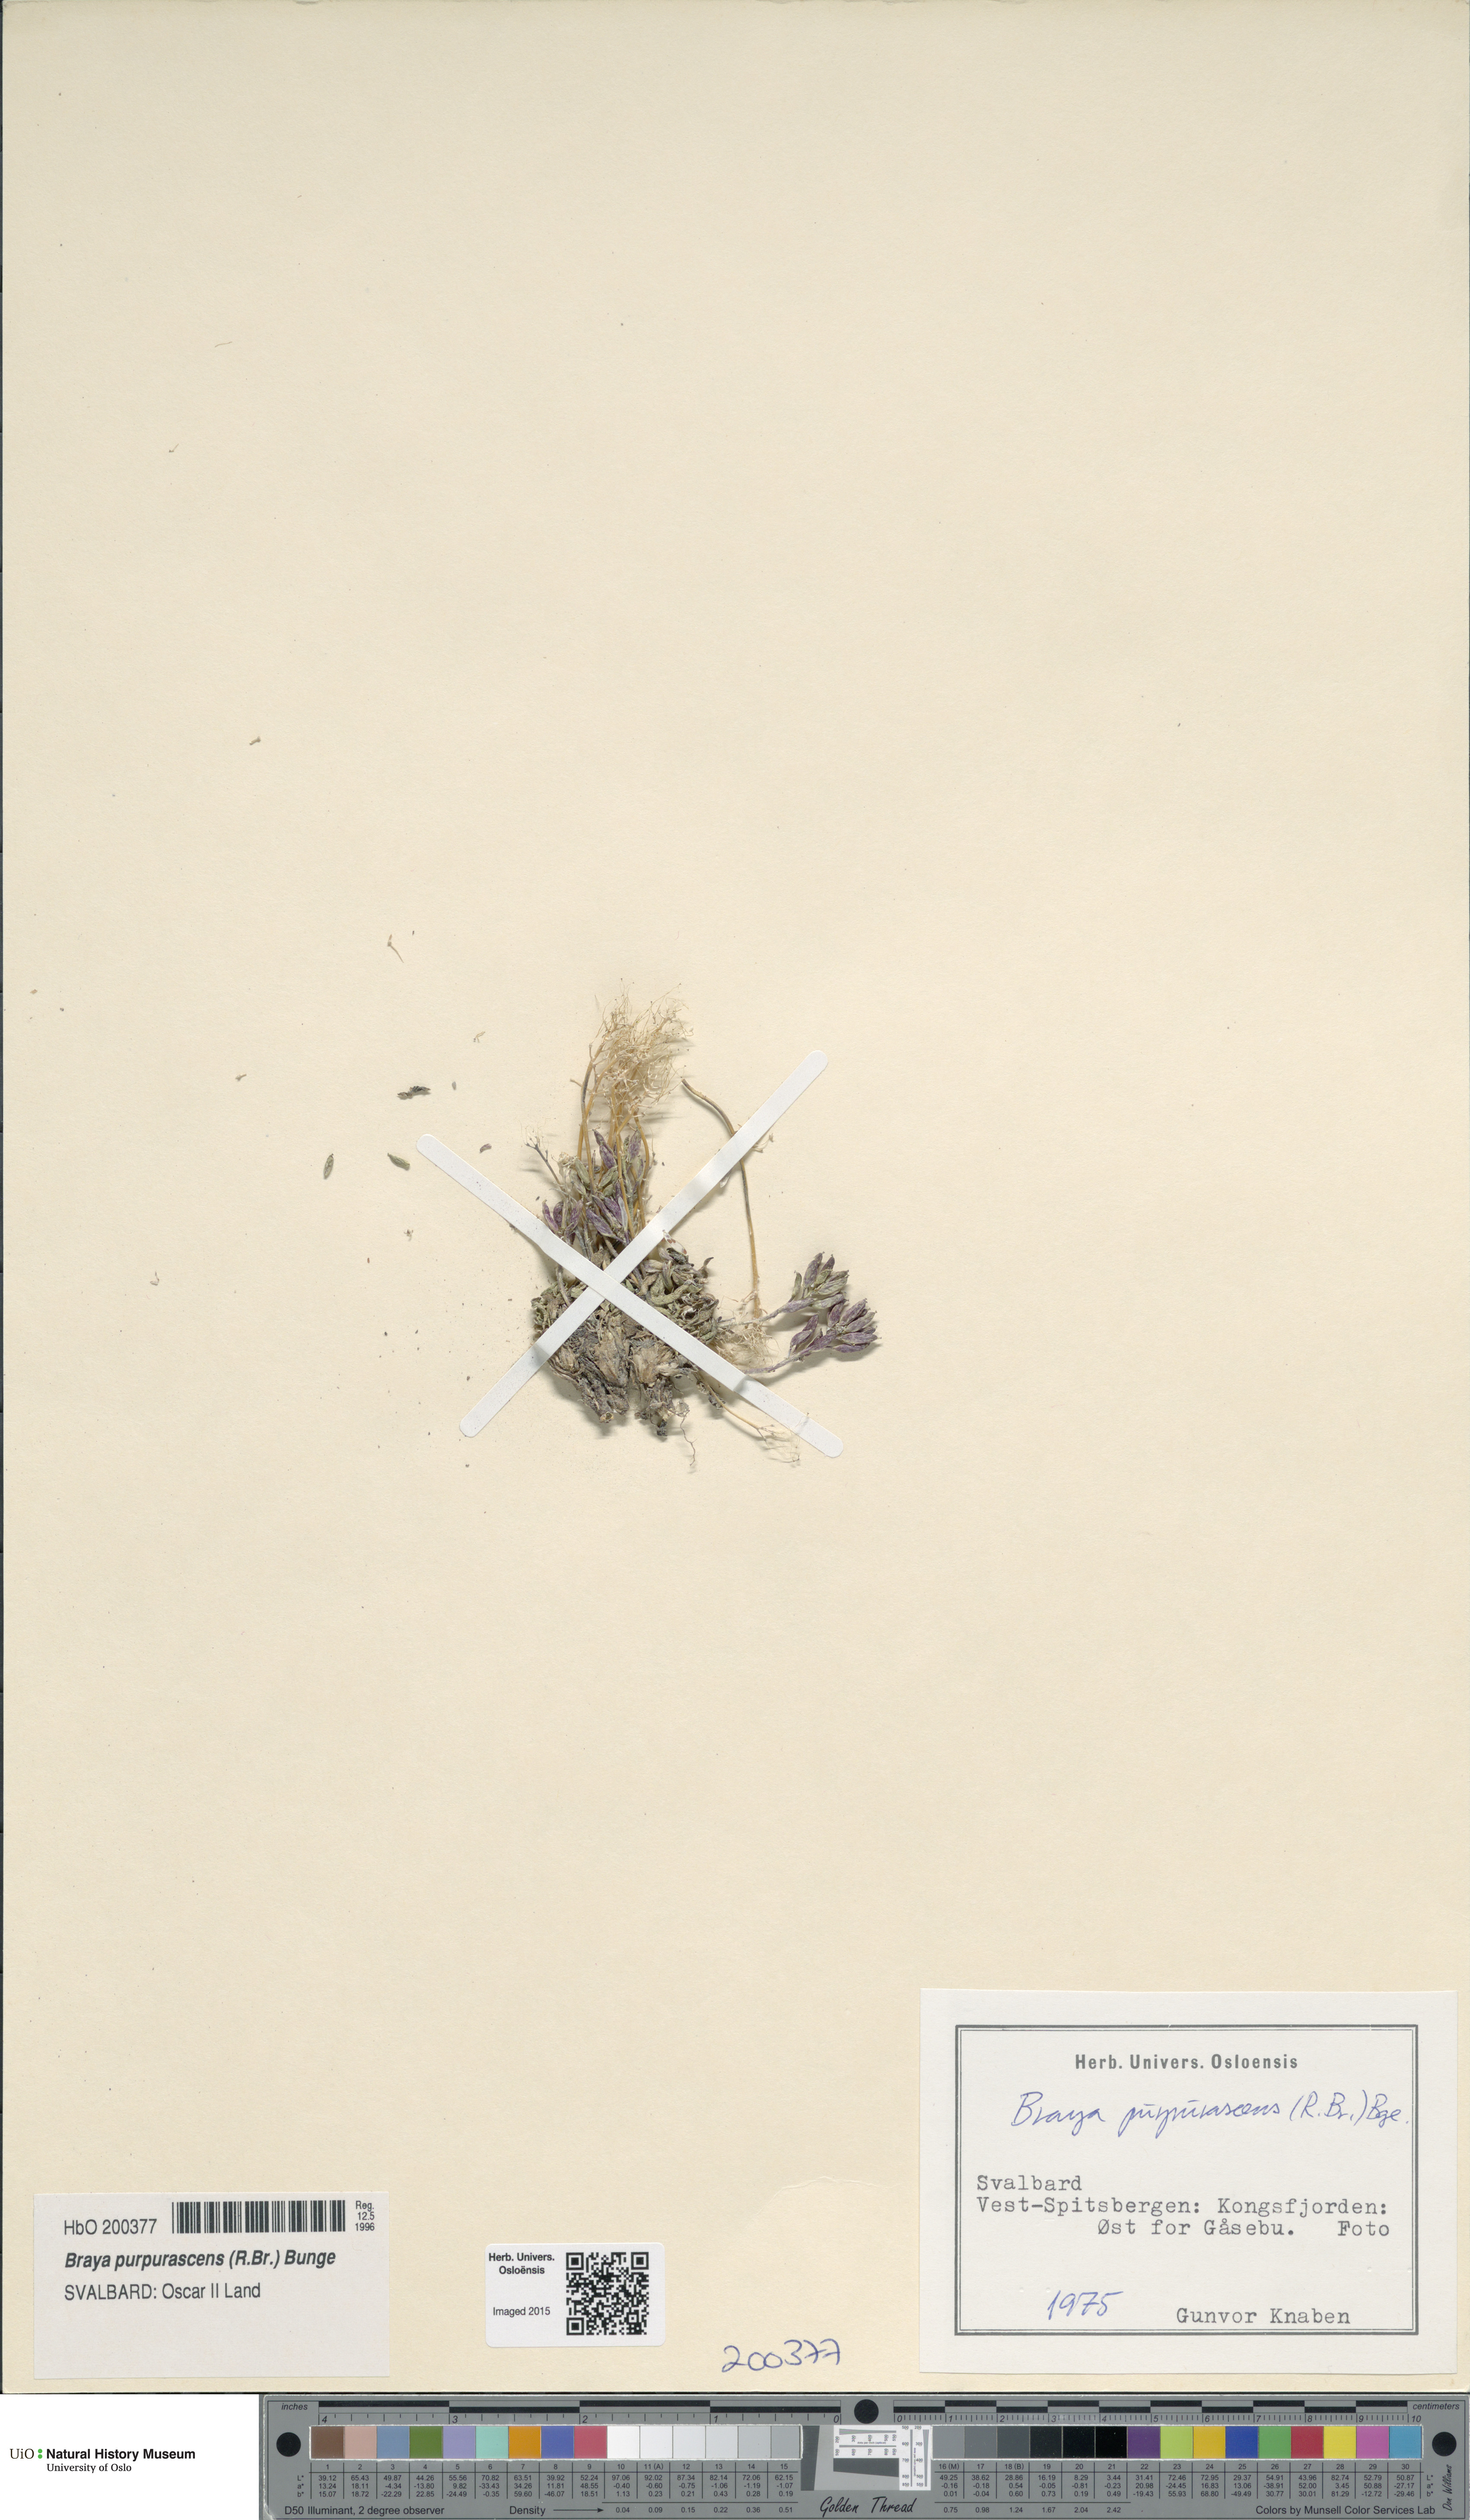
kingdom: Plantae
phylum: Tracheophyta
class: Magnoliopsida
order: Brassicales
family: Brassicaceae
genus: Braya
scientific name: Braya purpurascens
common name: Alpine braya
